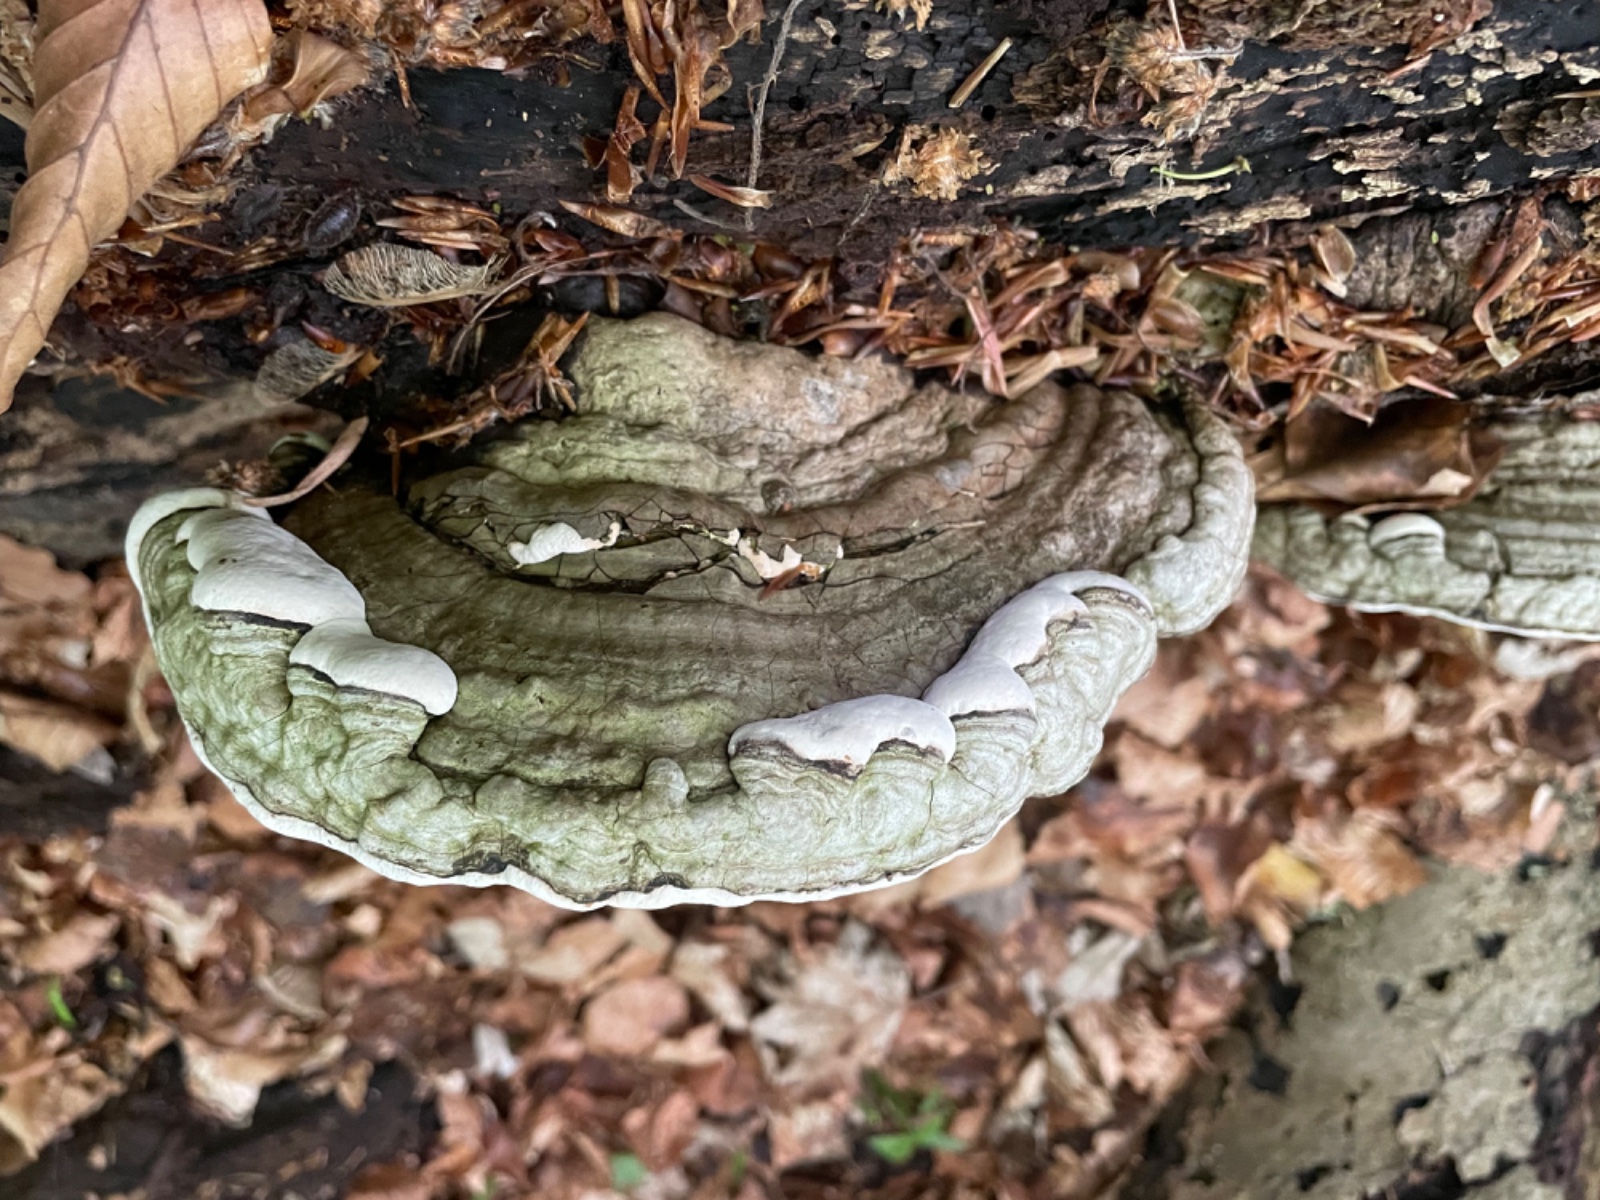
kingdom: Fungi
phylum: Basidiomycota
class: Agaricomycetes
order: Polyporales
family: Polyporaceae
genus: Ganoderma
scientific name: Ganoderma applanatum
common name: flad lakporesvamp
